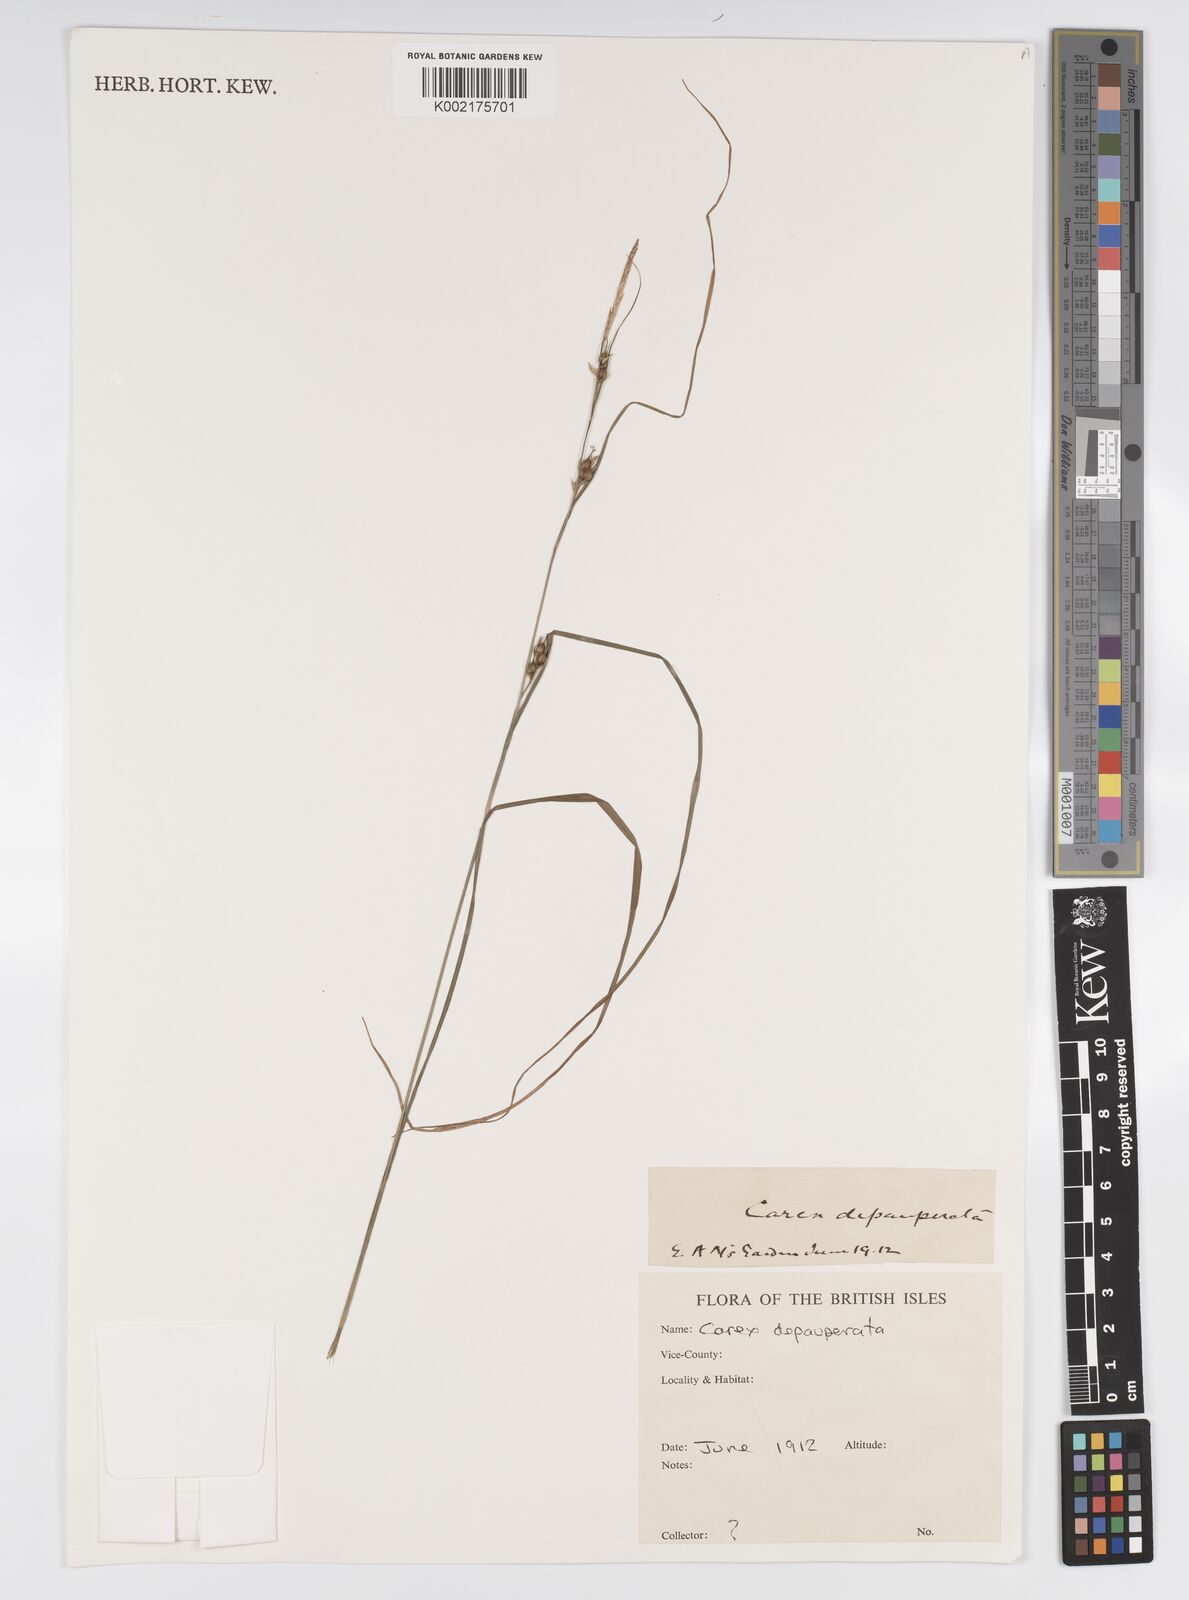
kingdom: Plantae
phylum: Tracheophyta
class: Liliopsida
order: Poales
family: Cyperaceae
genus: Carex
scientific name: Carex depauperata
